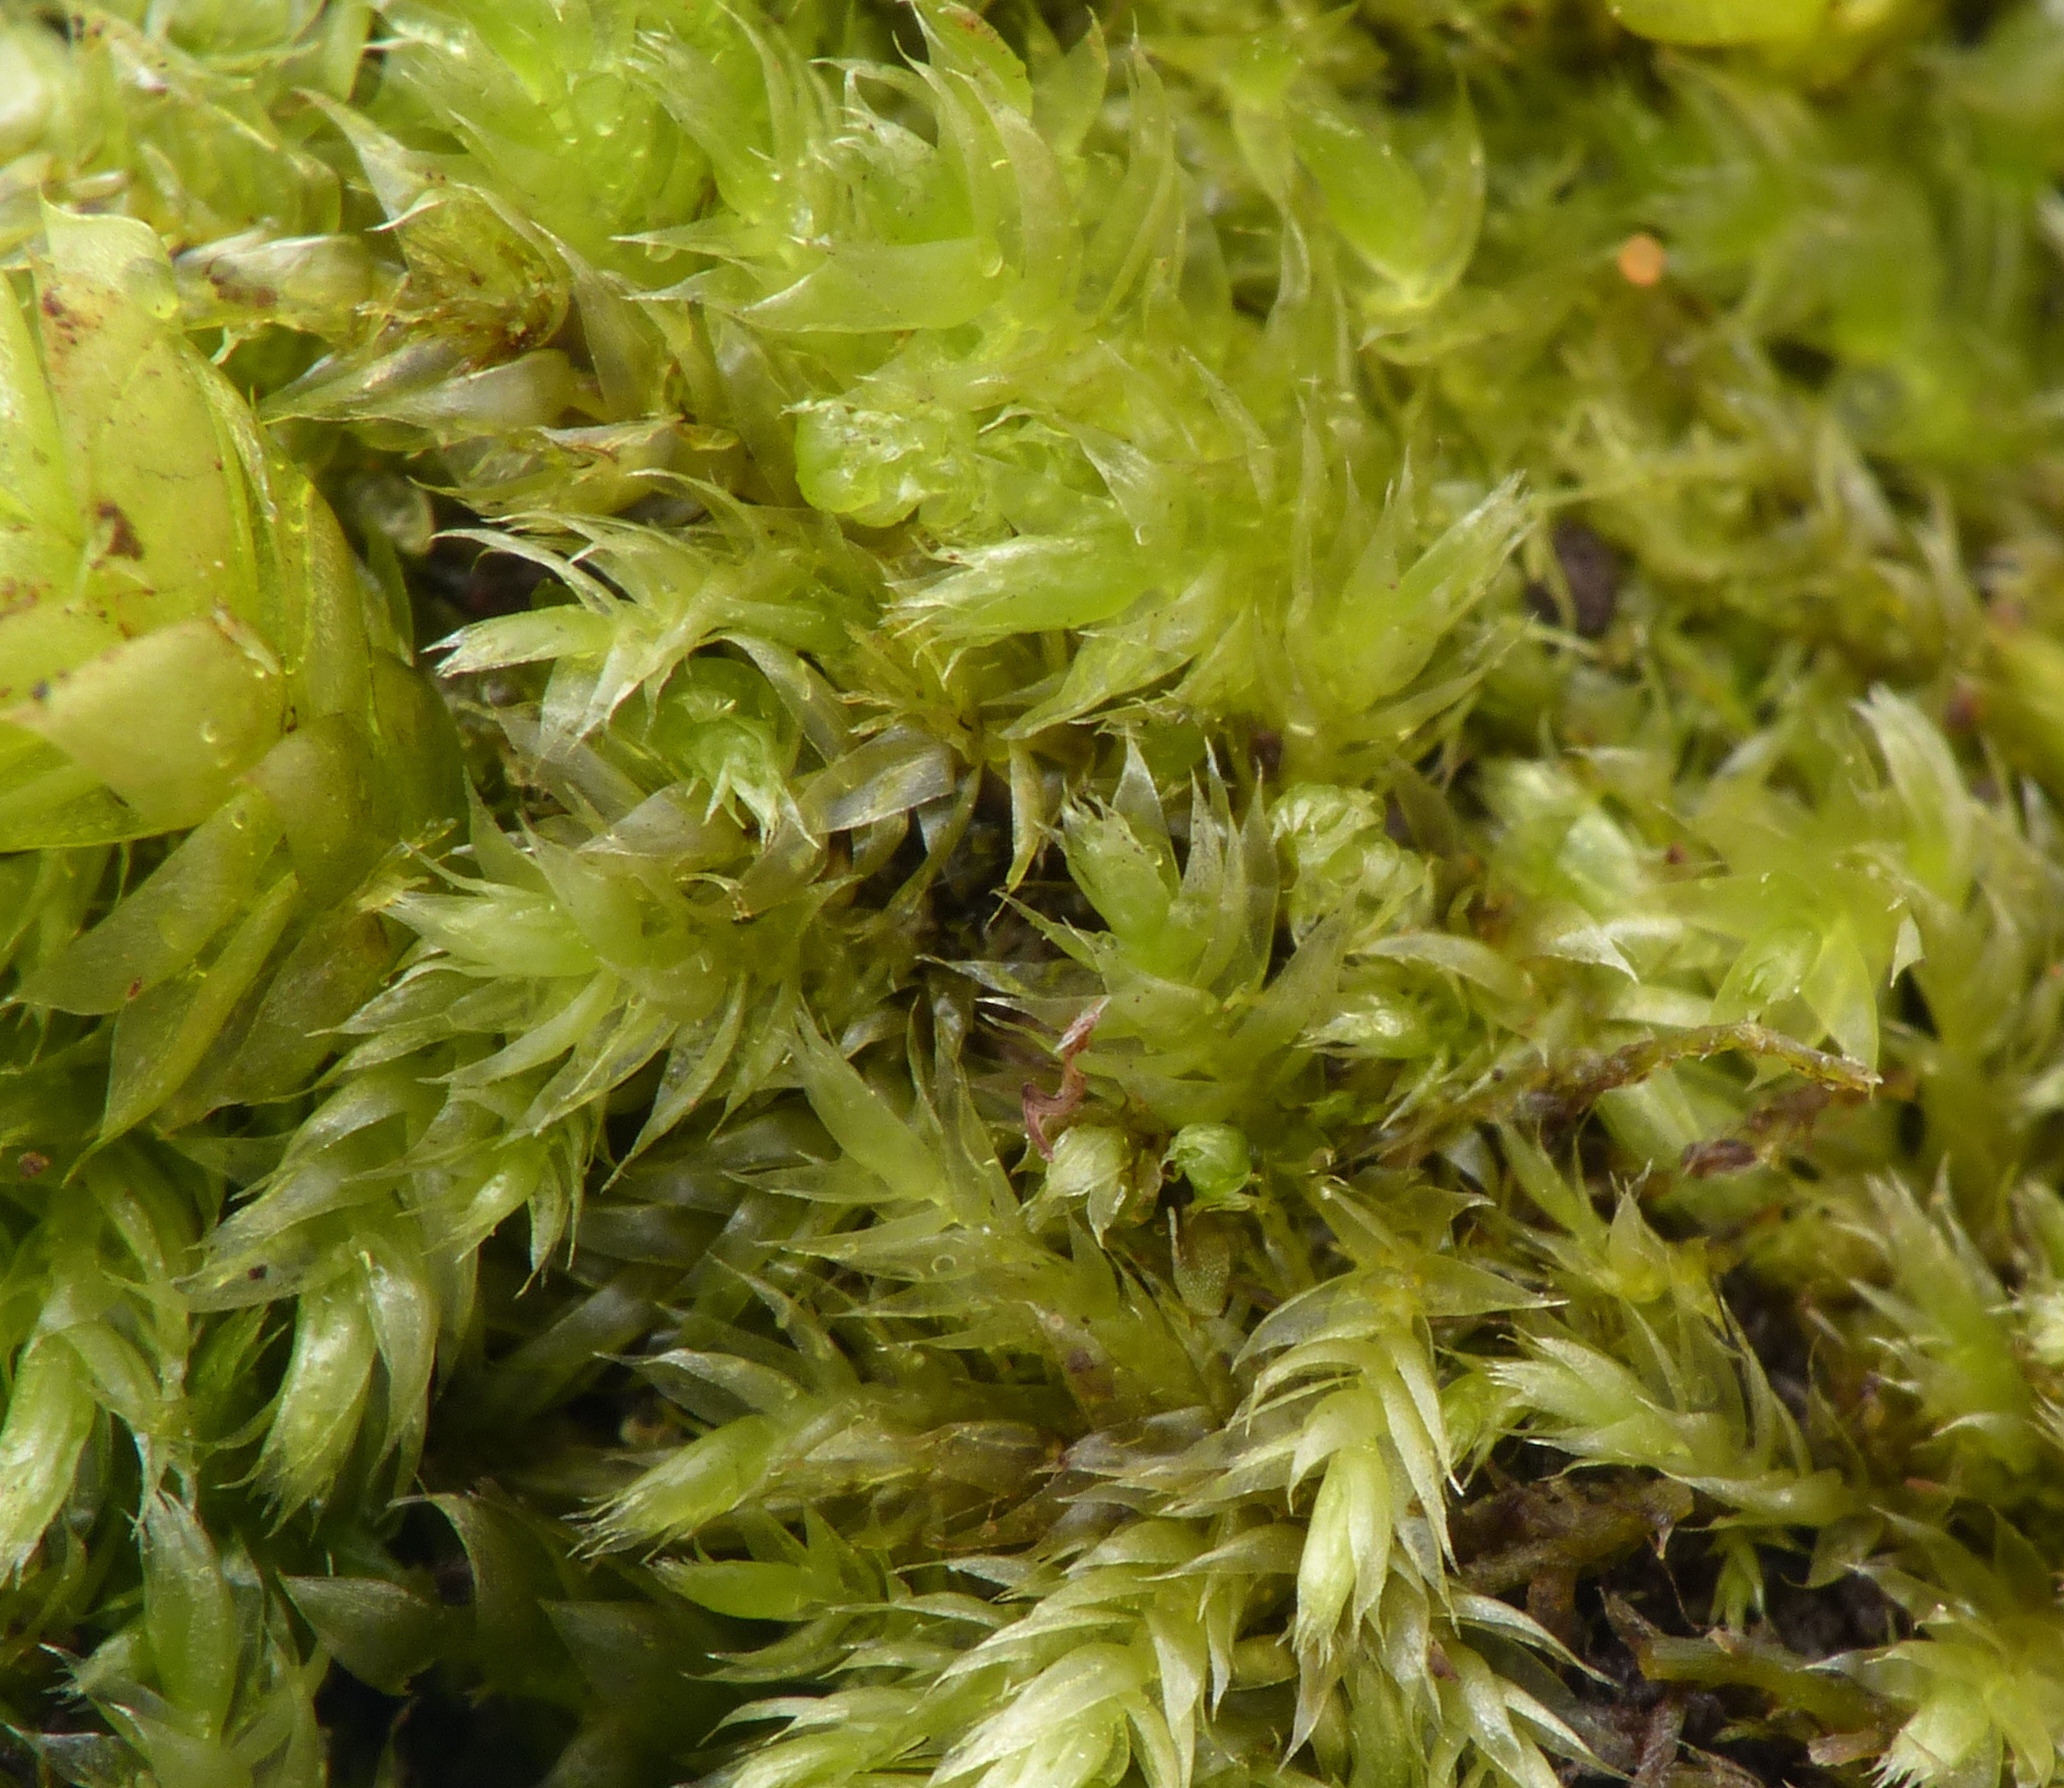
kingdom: Plantae
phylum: Bryophyta
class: Bryopsida
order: Hypnales
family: Plagiotheciaceae
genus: Pseudotaxiphyllum
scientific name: Pseudotaxiphyllum elegans
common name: Skinnende ynglegren
